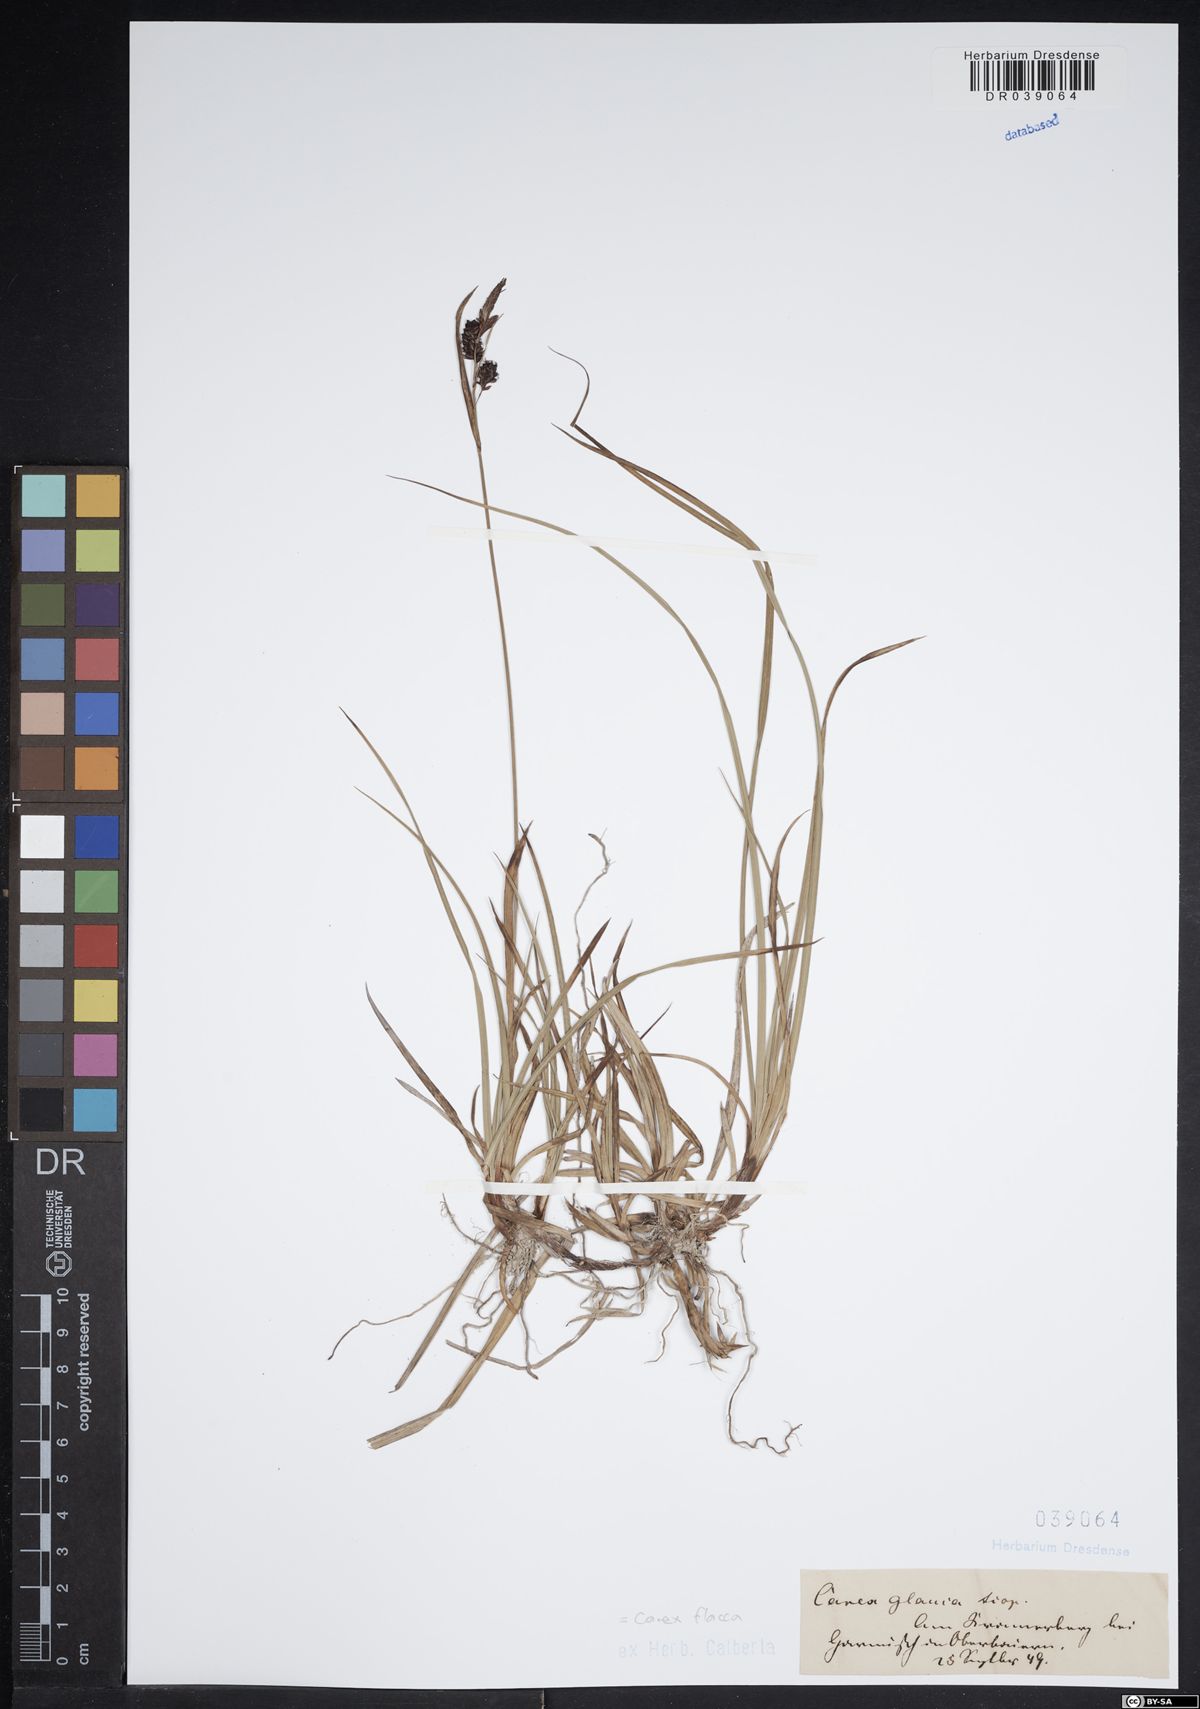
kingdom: Plantae
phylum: Tracheophyta
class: Liliopsida
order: Poales
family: Cyperaceae
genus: Carex
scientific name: Carex flacca
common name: Glaucous sedge
